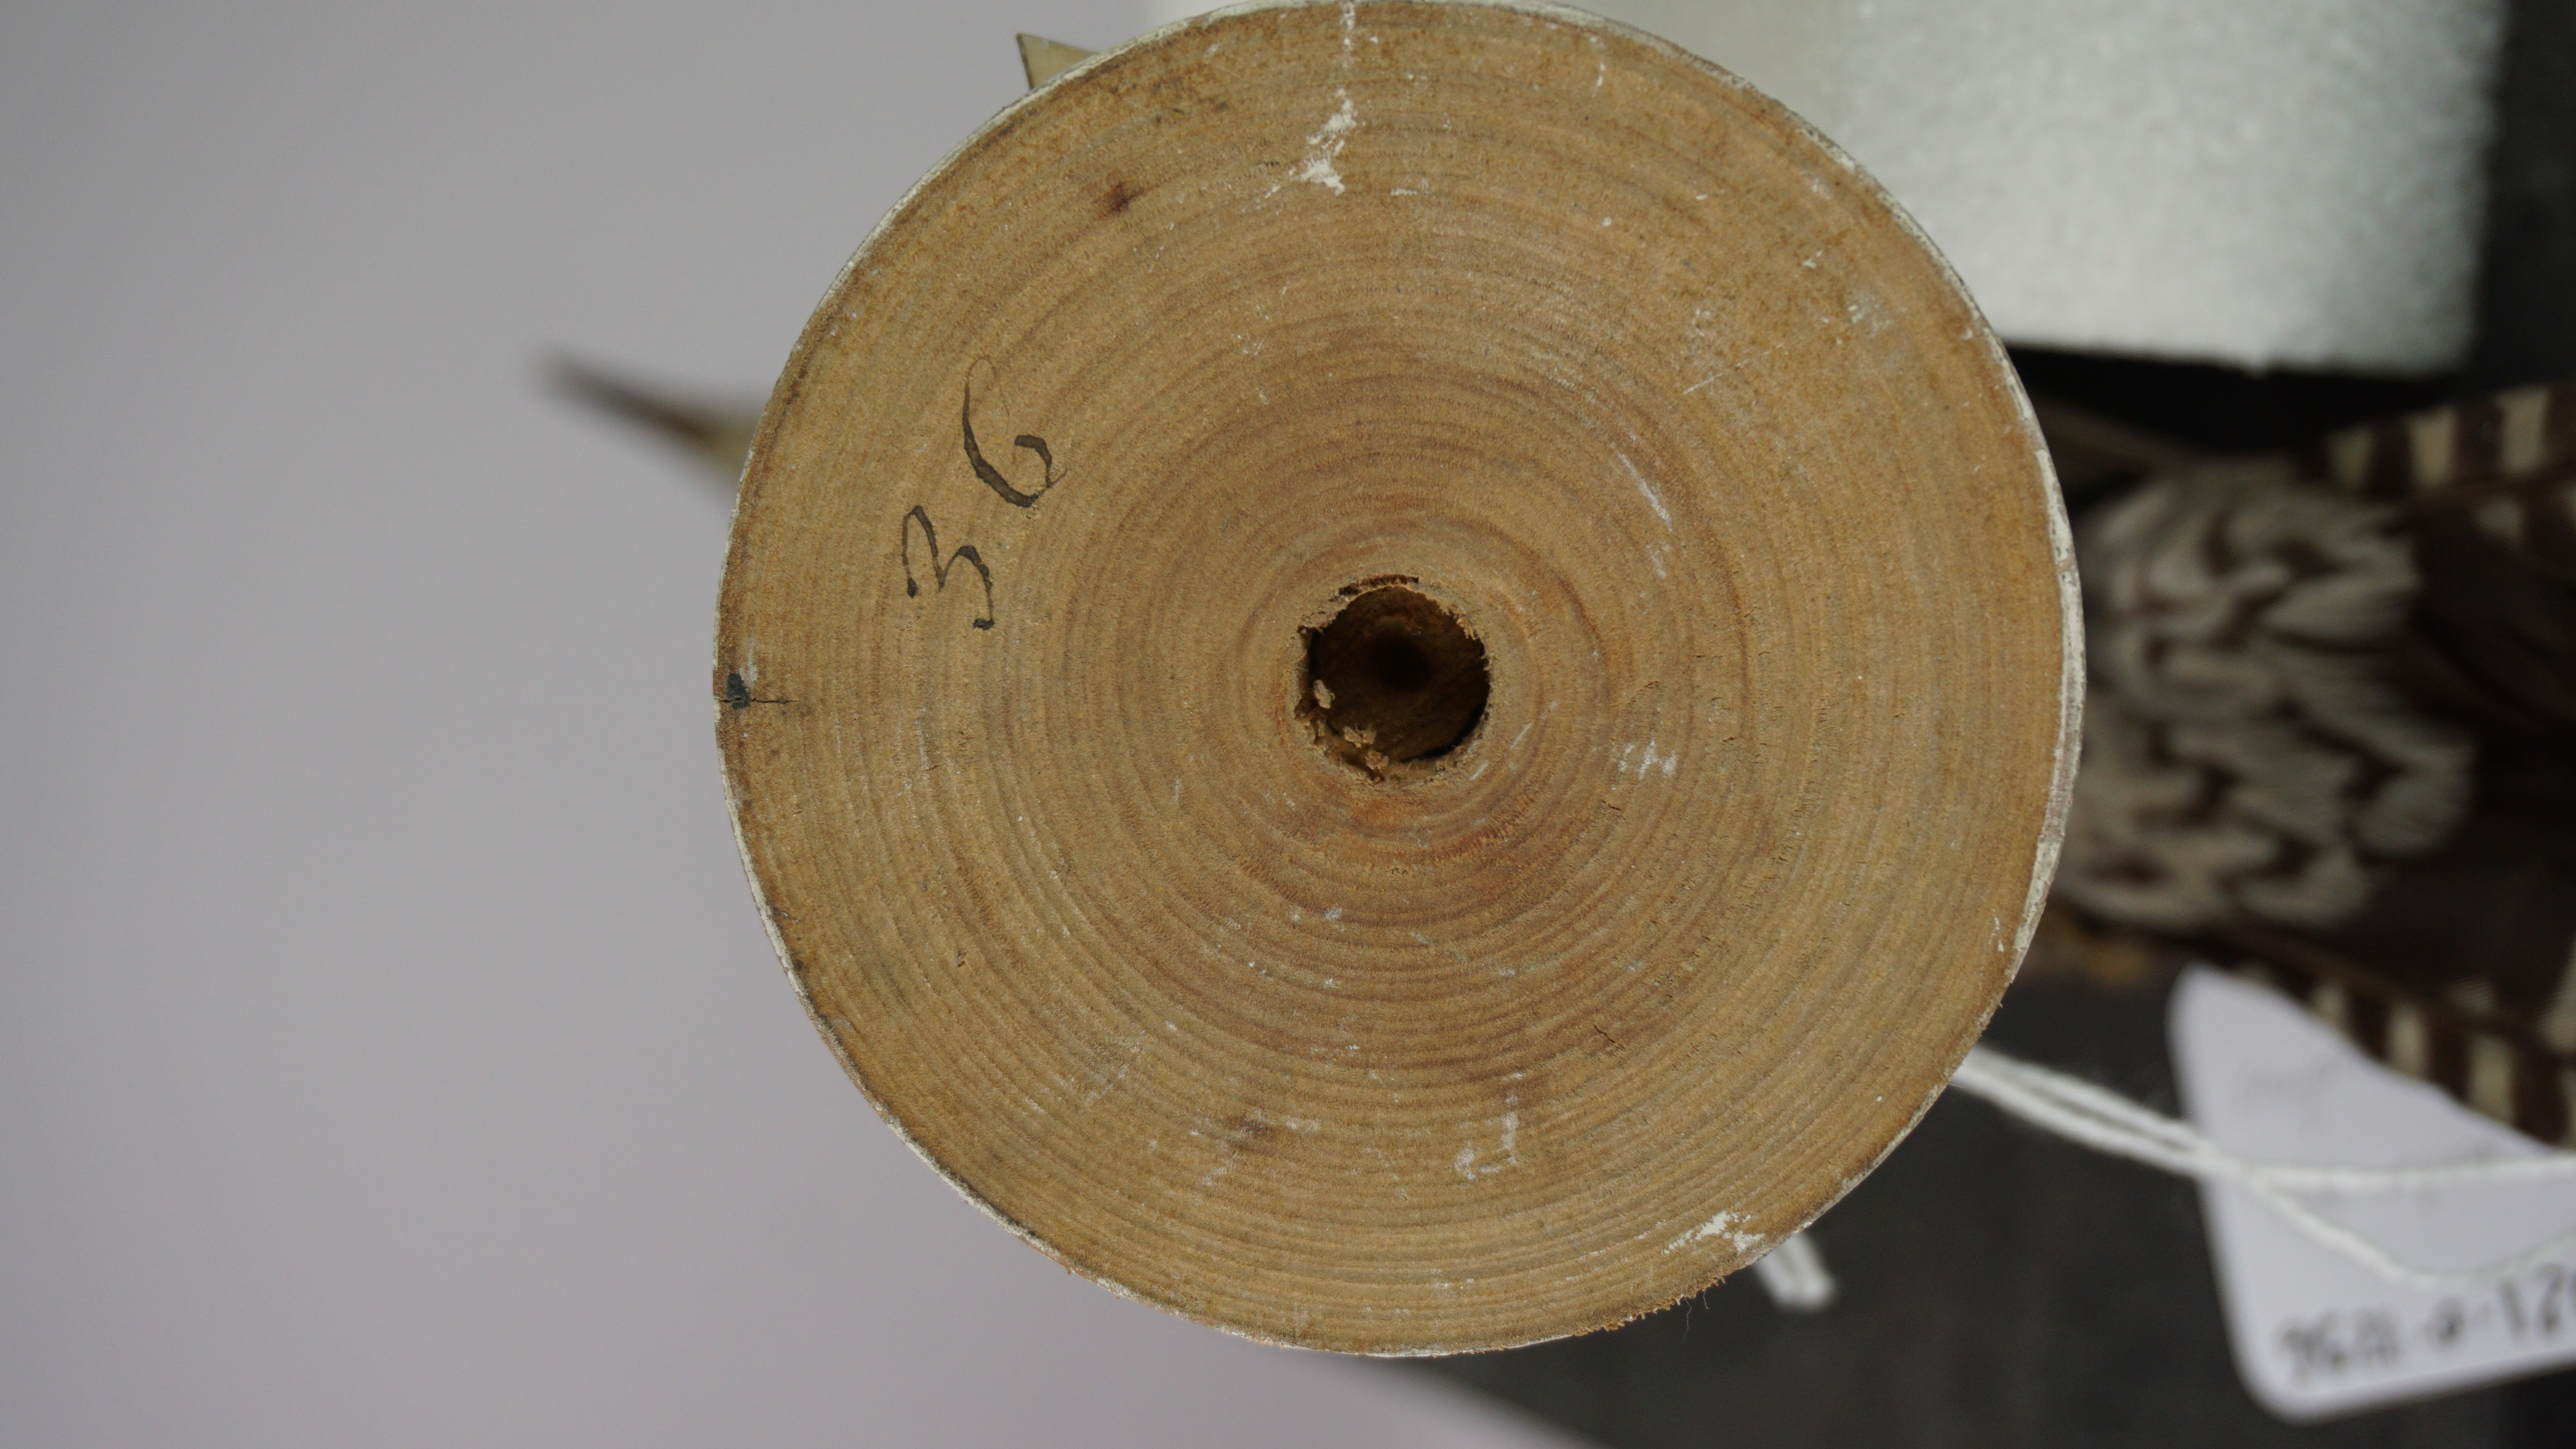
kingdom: Animalia
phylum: Chordata
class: Aves
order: Piciformes
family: Picidae
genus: Melanerpes
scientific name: Melanerpes carolinus
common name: Red-bellied woodpecker
